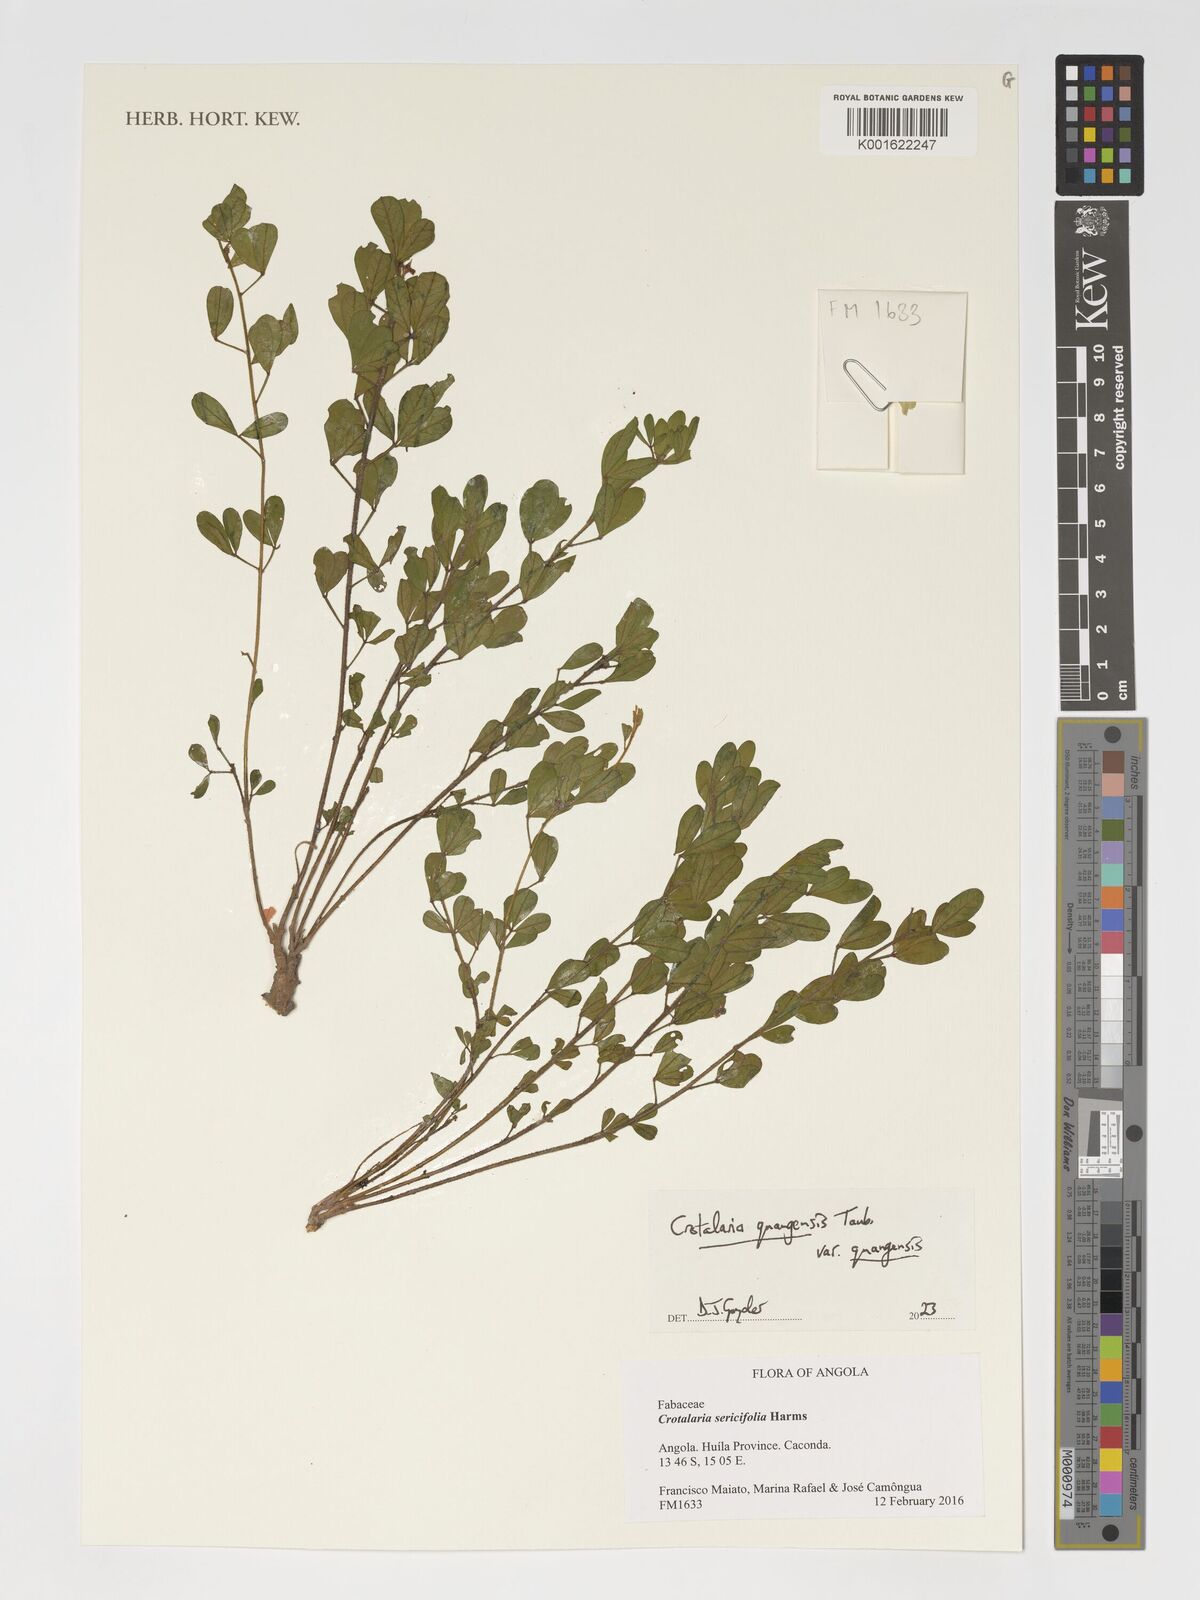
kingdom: Plantae
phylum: Tracheophyta
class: Magnoliopsida
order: Fabales
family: Fabaceae
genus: Crotalaria
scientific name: Crotalaria quangensis
